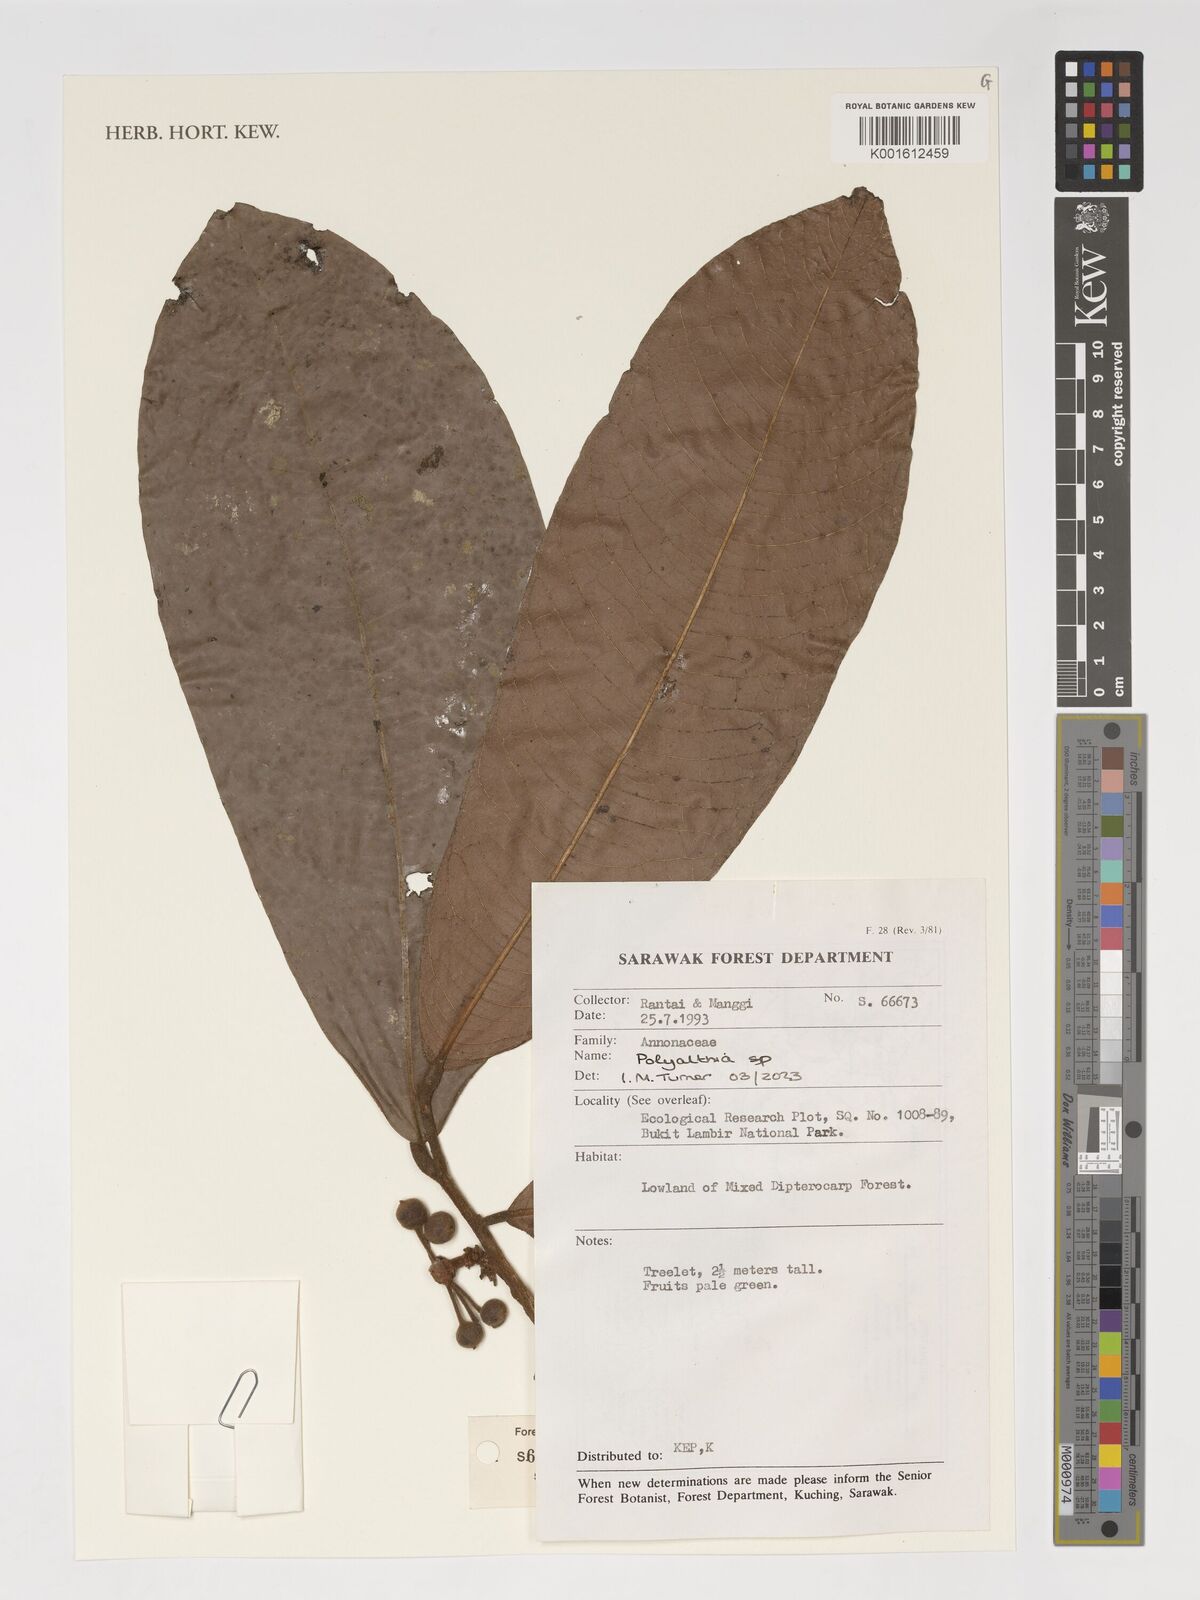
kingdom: Plantae
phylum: Tracheophyta
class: Magnoliopsida
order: Magnoliales
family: Annonaceae
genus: Polyalthia
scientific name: Polyalthia
